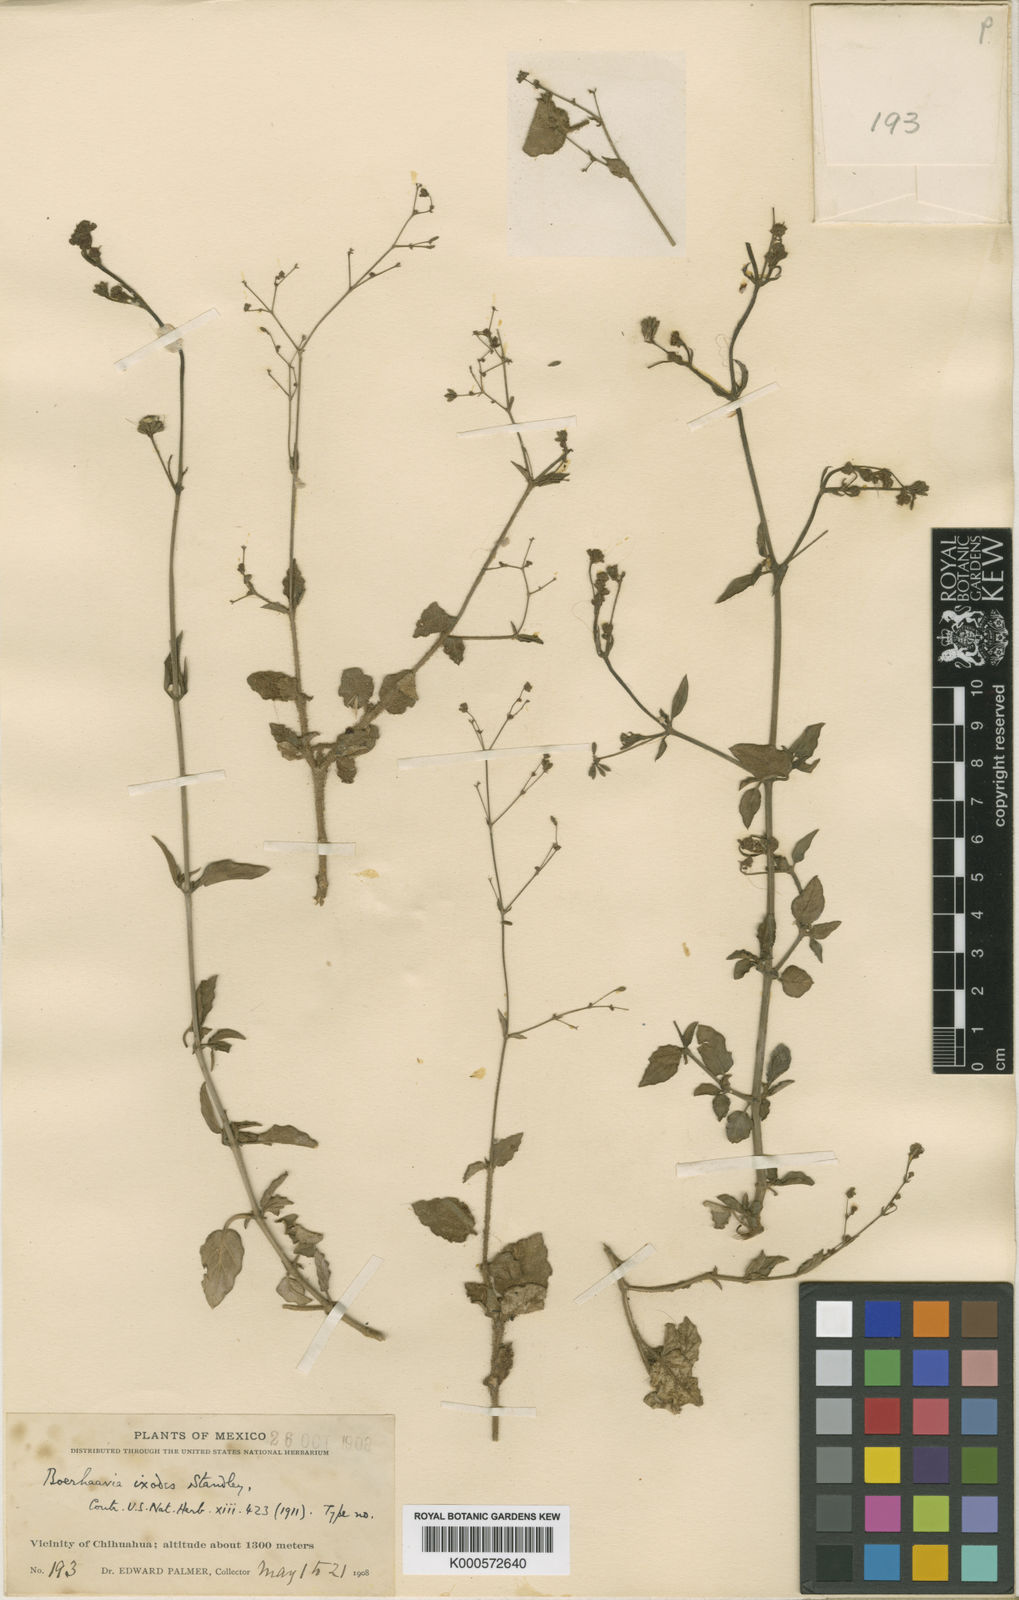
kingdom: Plantae
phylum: Tracheophyta
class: Magnoliopsida
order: Caryophyllales
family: Nyctaginaceae
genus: Boerhavia
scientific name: Boerhavia coccinea
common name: Scarlet spiderling
